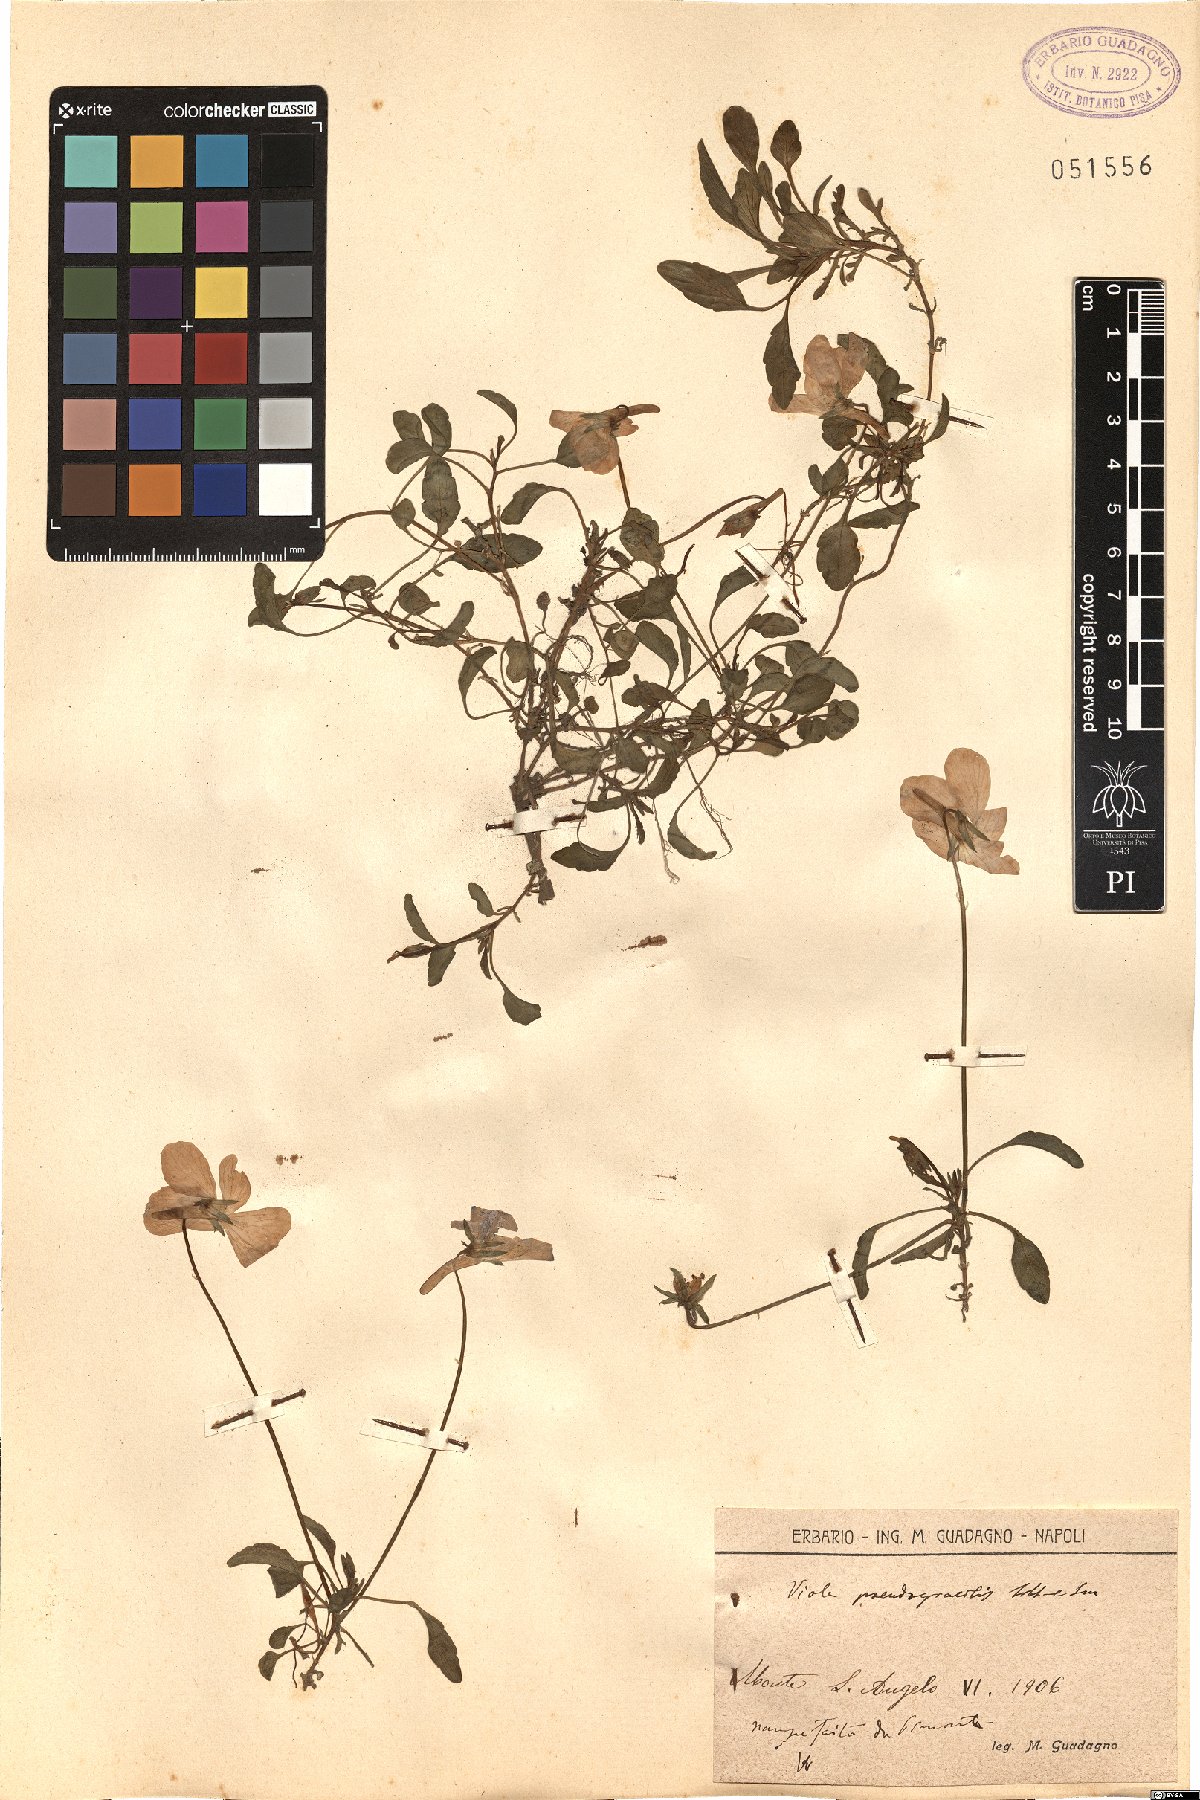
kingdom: Plantae
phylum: Tracheophyta
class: Magnoliopsida
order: Malpighiales
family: Violaceae
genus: Viola
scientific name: Viola pseudogracilis
